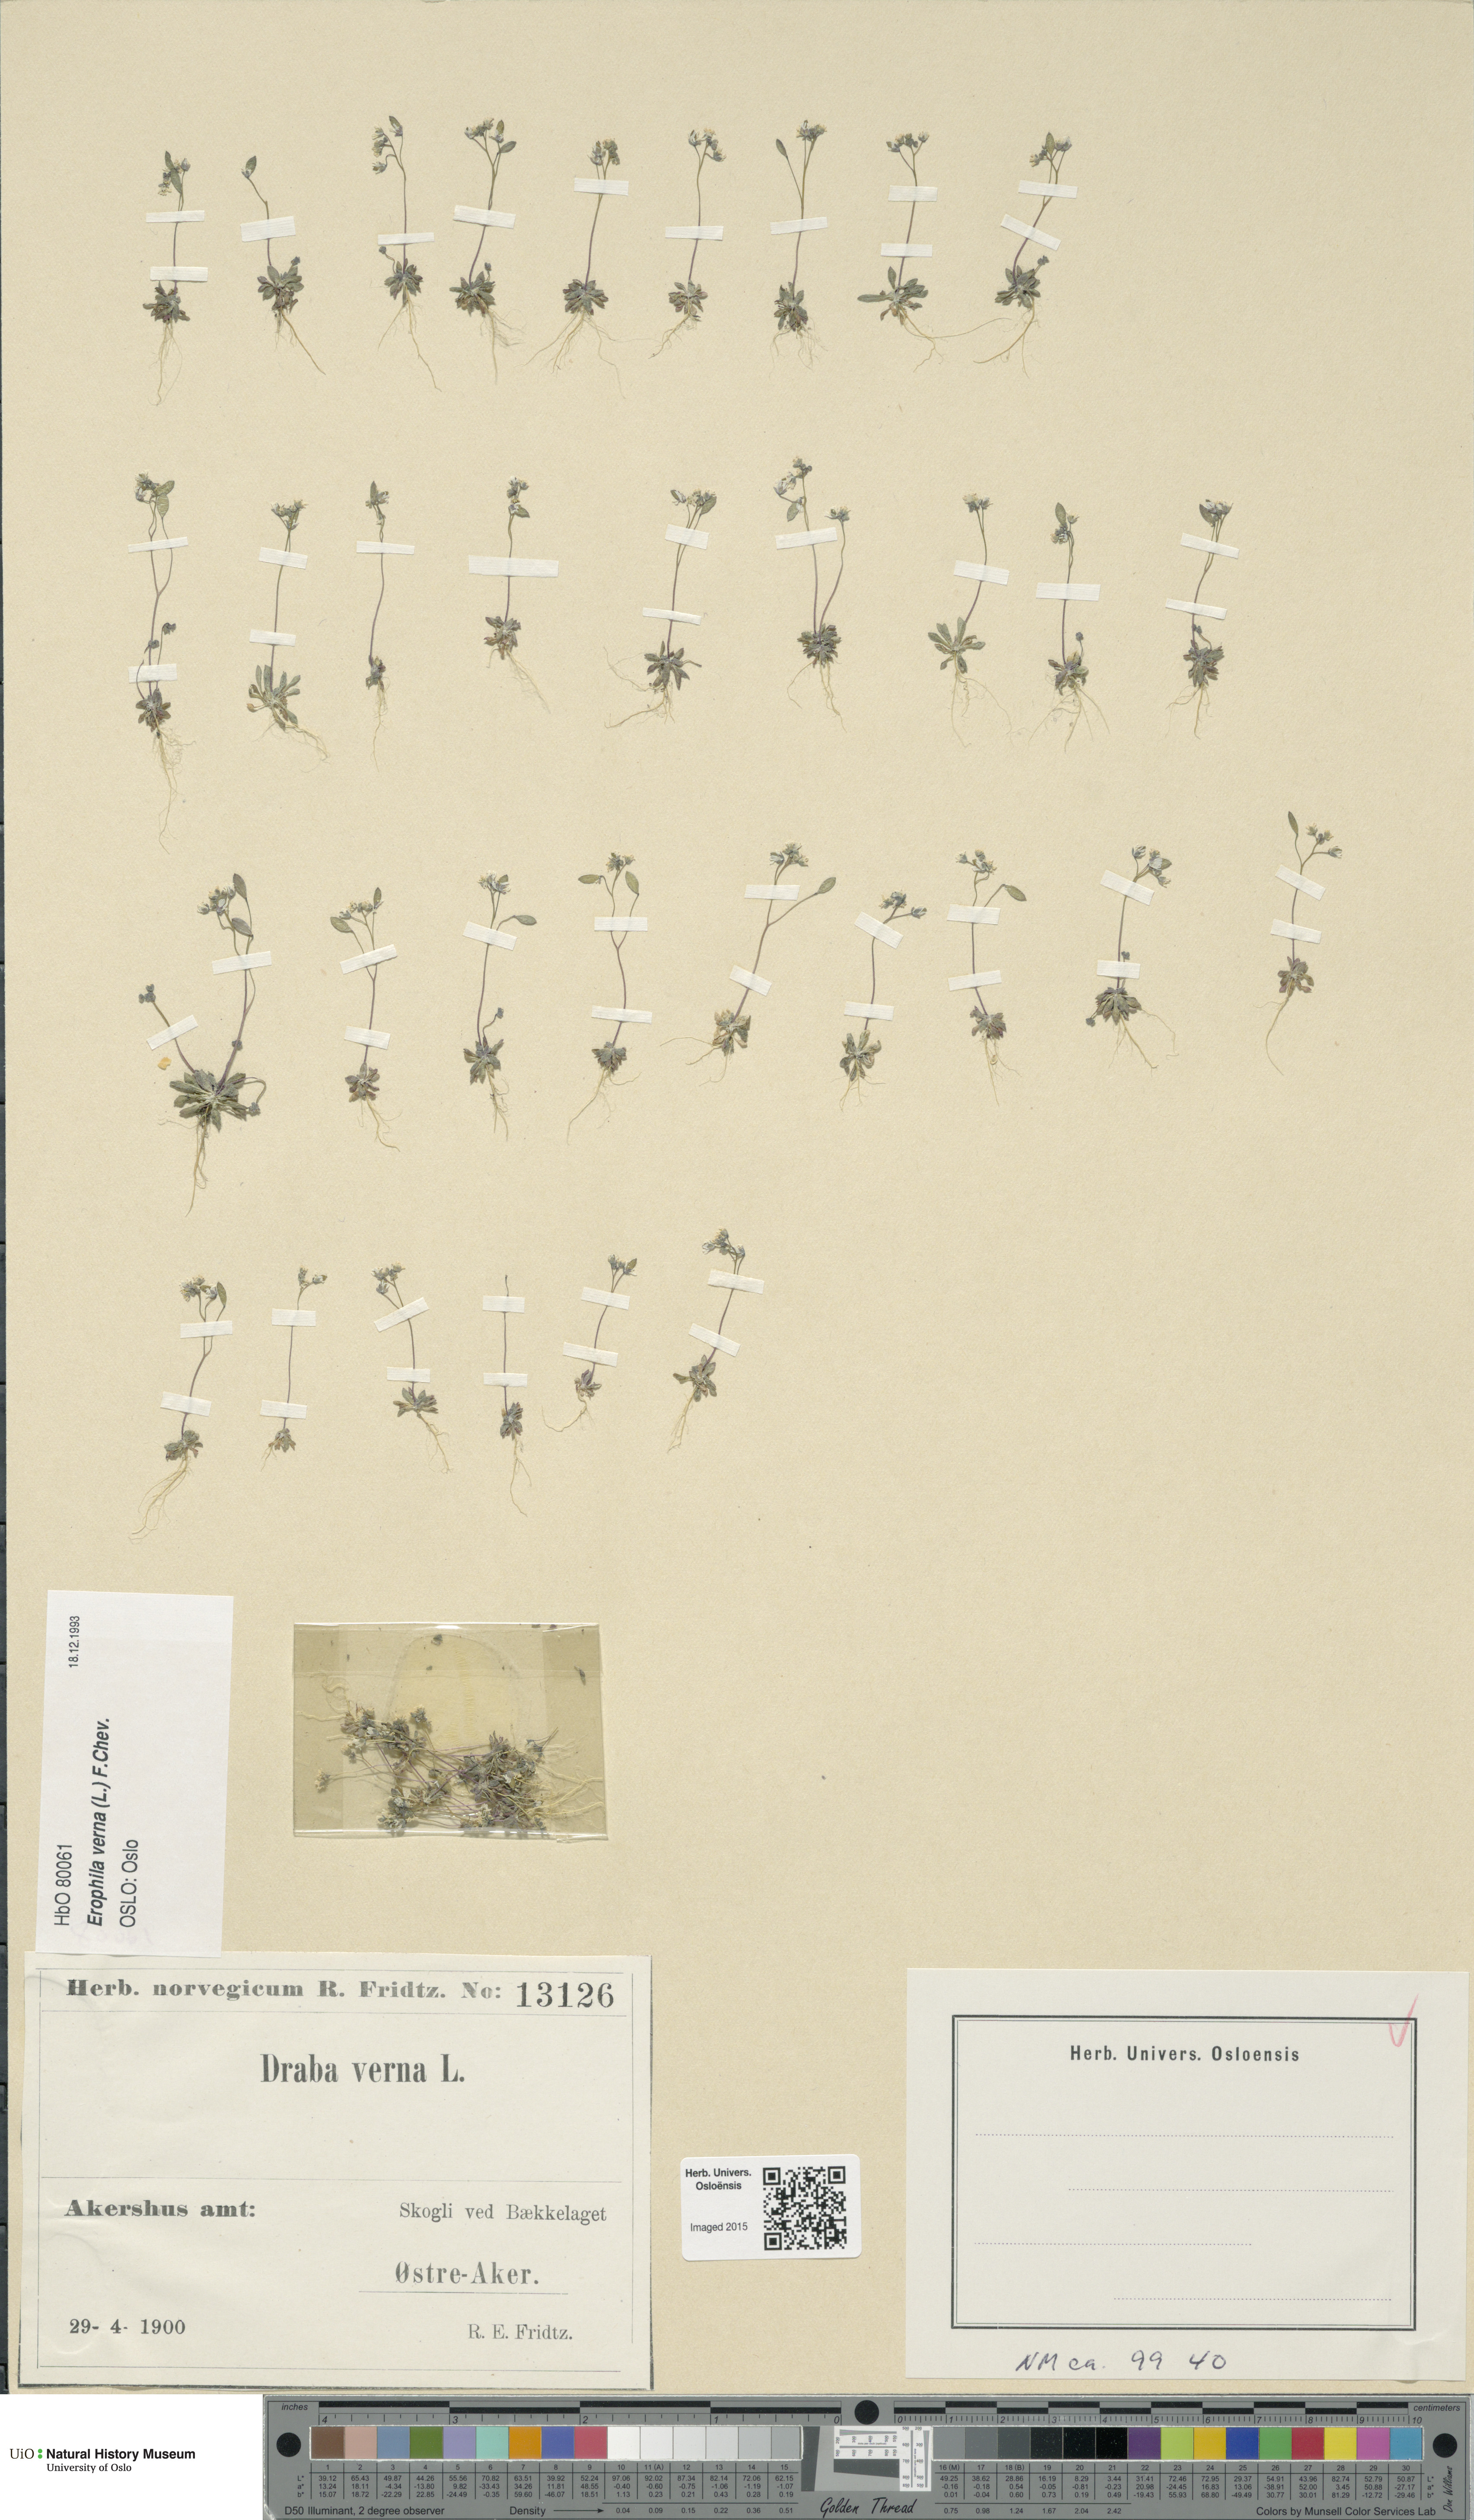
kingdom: Plantae
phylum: Tracheophyta
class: Magnoliopsida
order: Brassicales
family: Brassicaceae
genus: Draba
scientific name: Draba verna
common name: Spring draba
